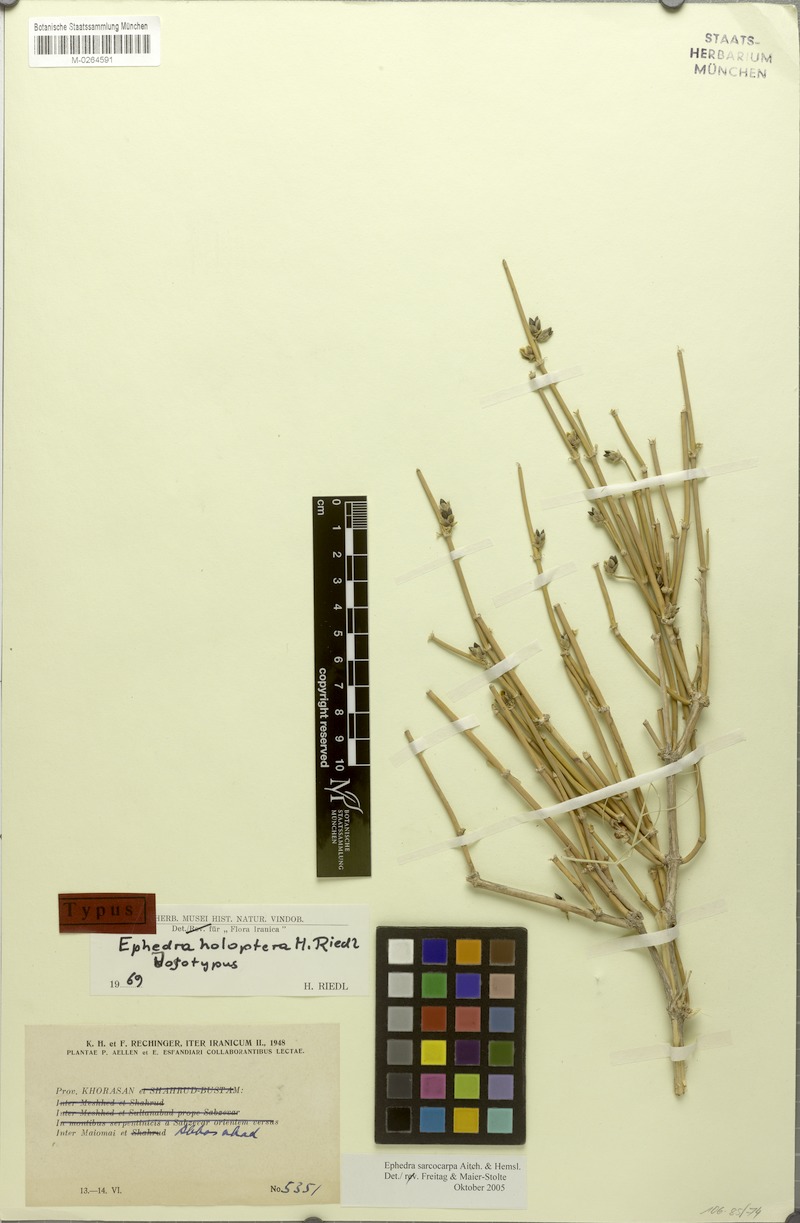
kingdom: Plantae
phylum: Tracheophyta
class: Gnetopsida
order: Ephedrales
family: Ephedraceae
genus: Ephedra
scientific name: Ephedra sarcocarpa
